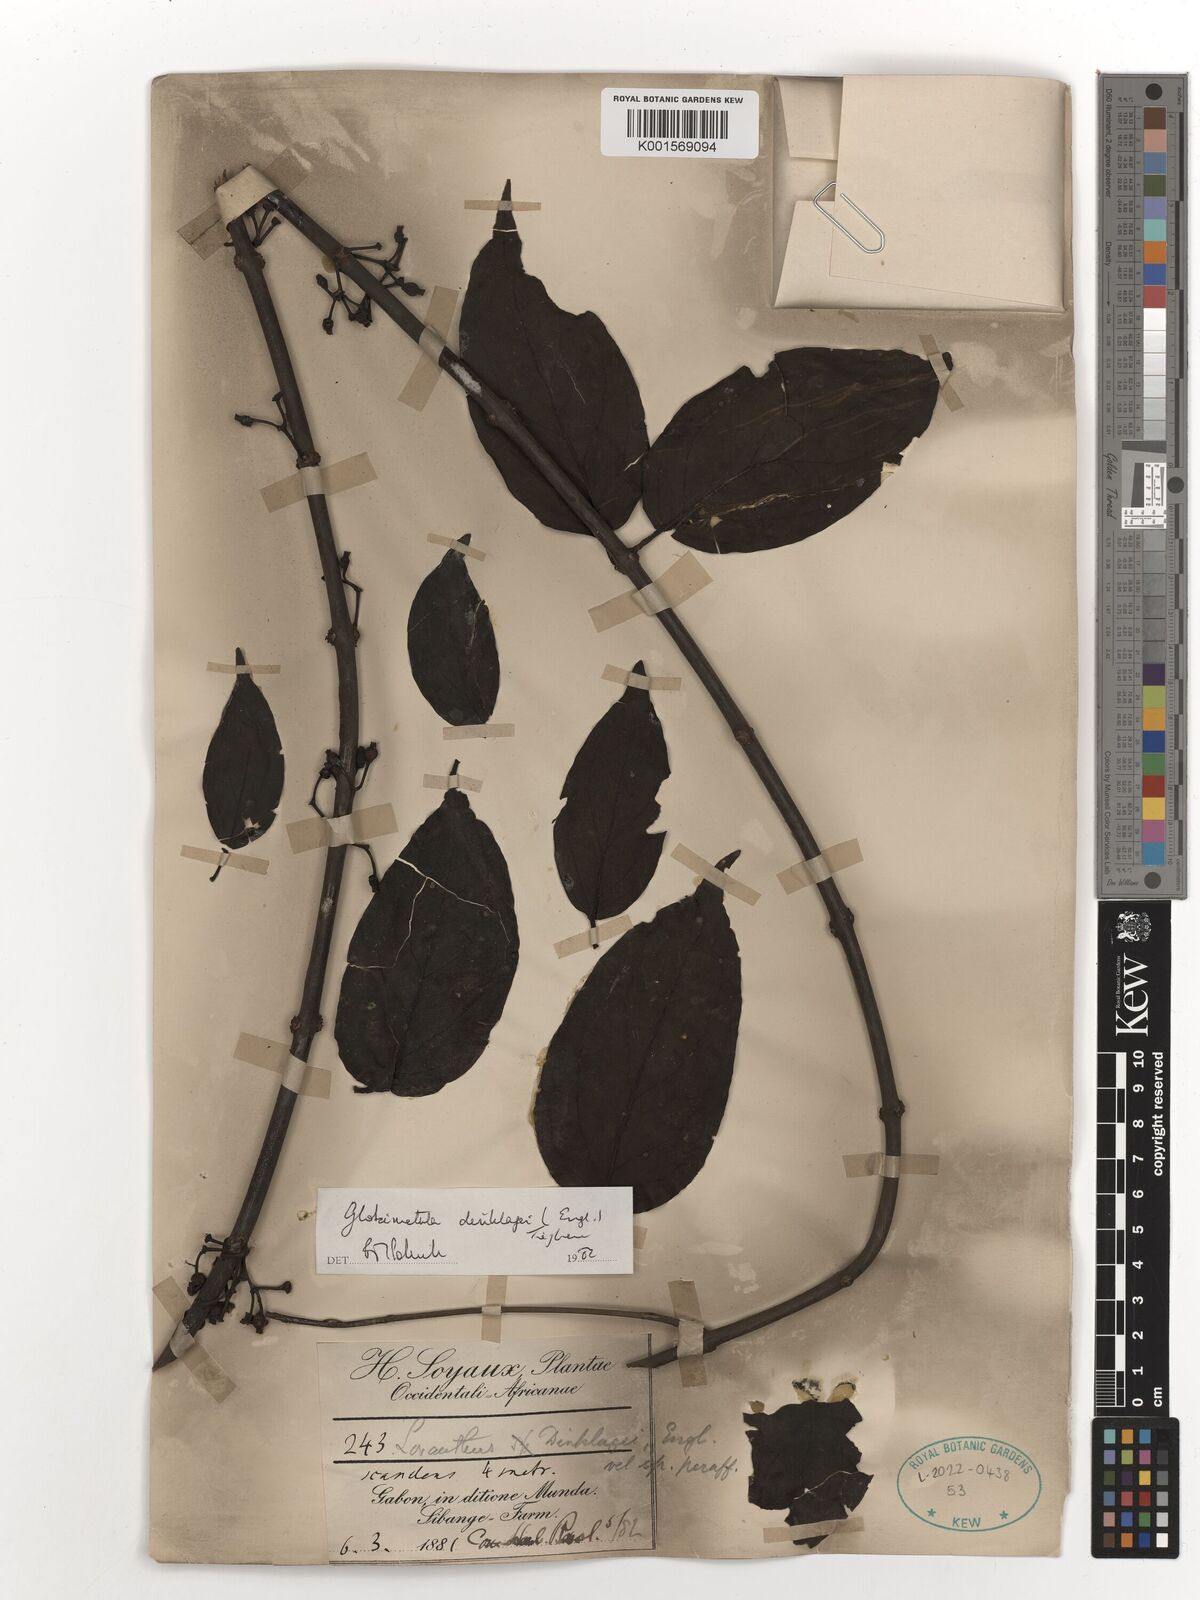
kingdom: Plantae
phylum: Tracheophyta
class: Magnoliopsida
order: Santalales
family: Loranthaceae
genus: Globimetula
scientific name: Globimetula dinklagei
